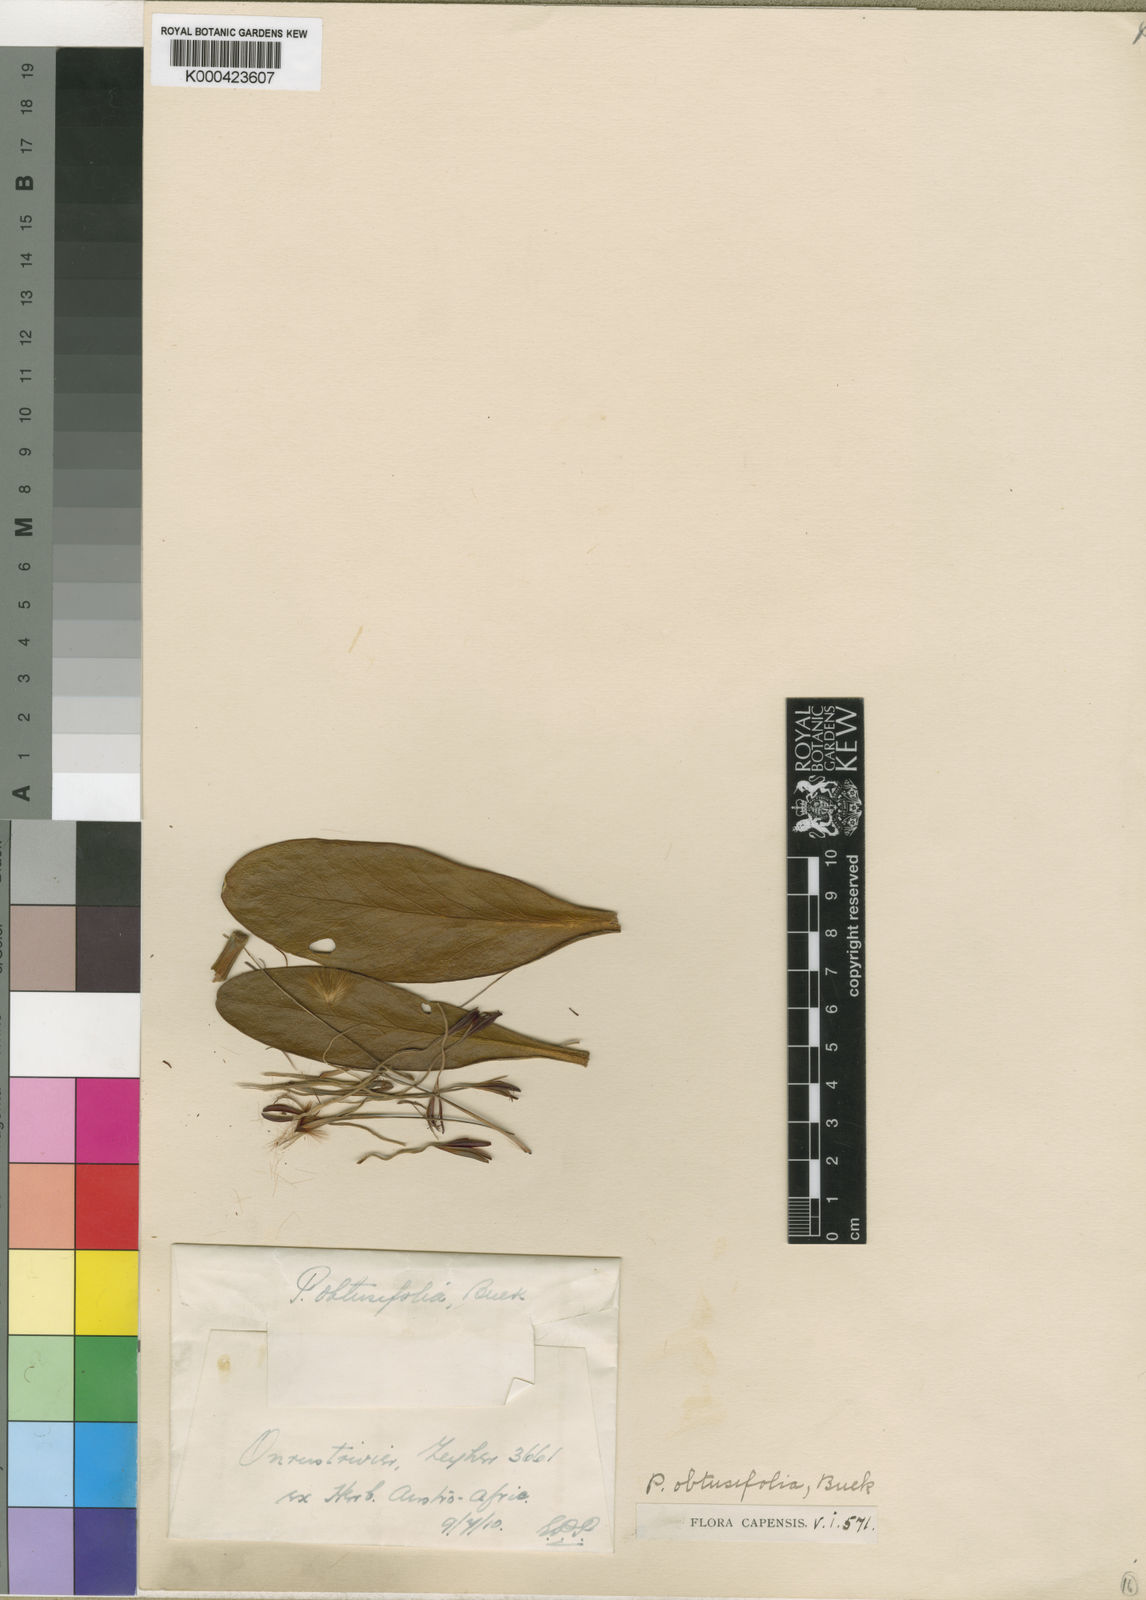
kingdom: Plantae
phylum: Tracheophyta
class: Magnoliopsida
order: Proteales
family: Proteaceae
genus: Protea
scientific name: Protea obtusifolia
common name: Bredasdorp sugarbush
